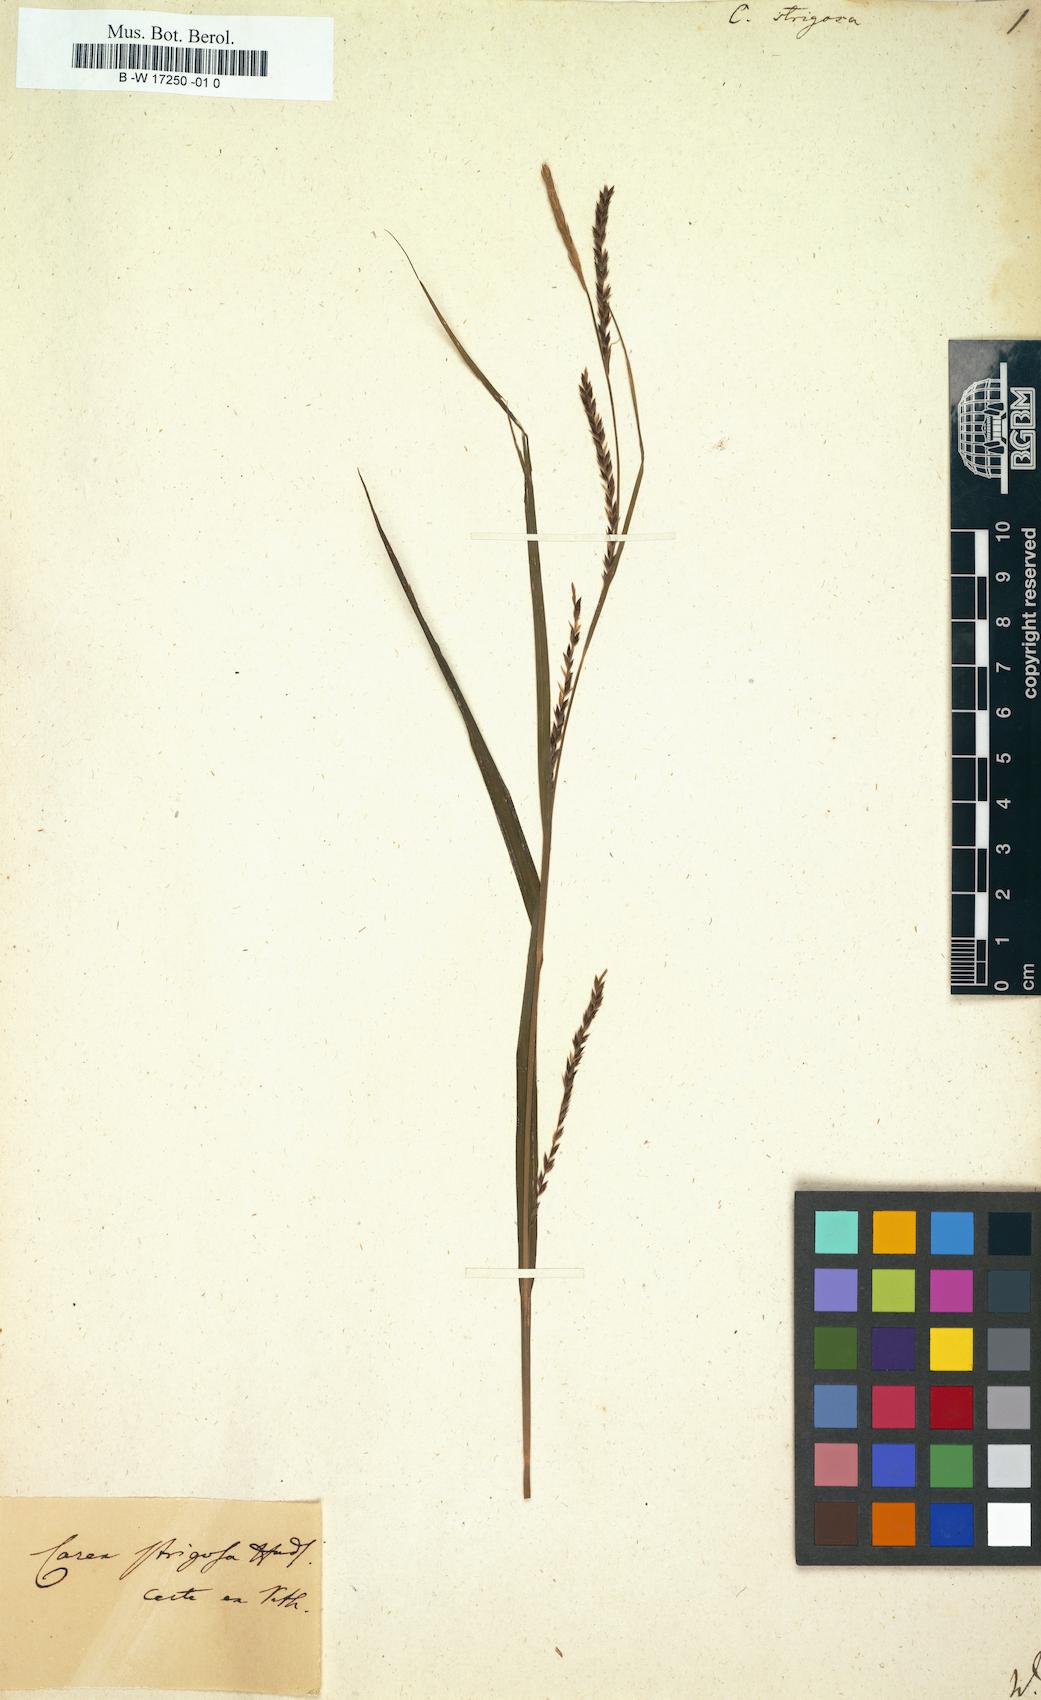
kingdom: Plantae
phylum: Tracheophyta
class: Liliopsida
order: Poales
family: Cyperaceae
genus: Carex
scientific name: Carex strigosa
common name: Thin-spiked wood-sedge
